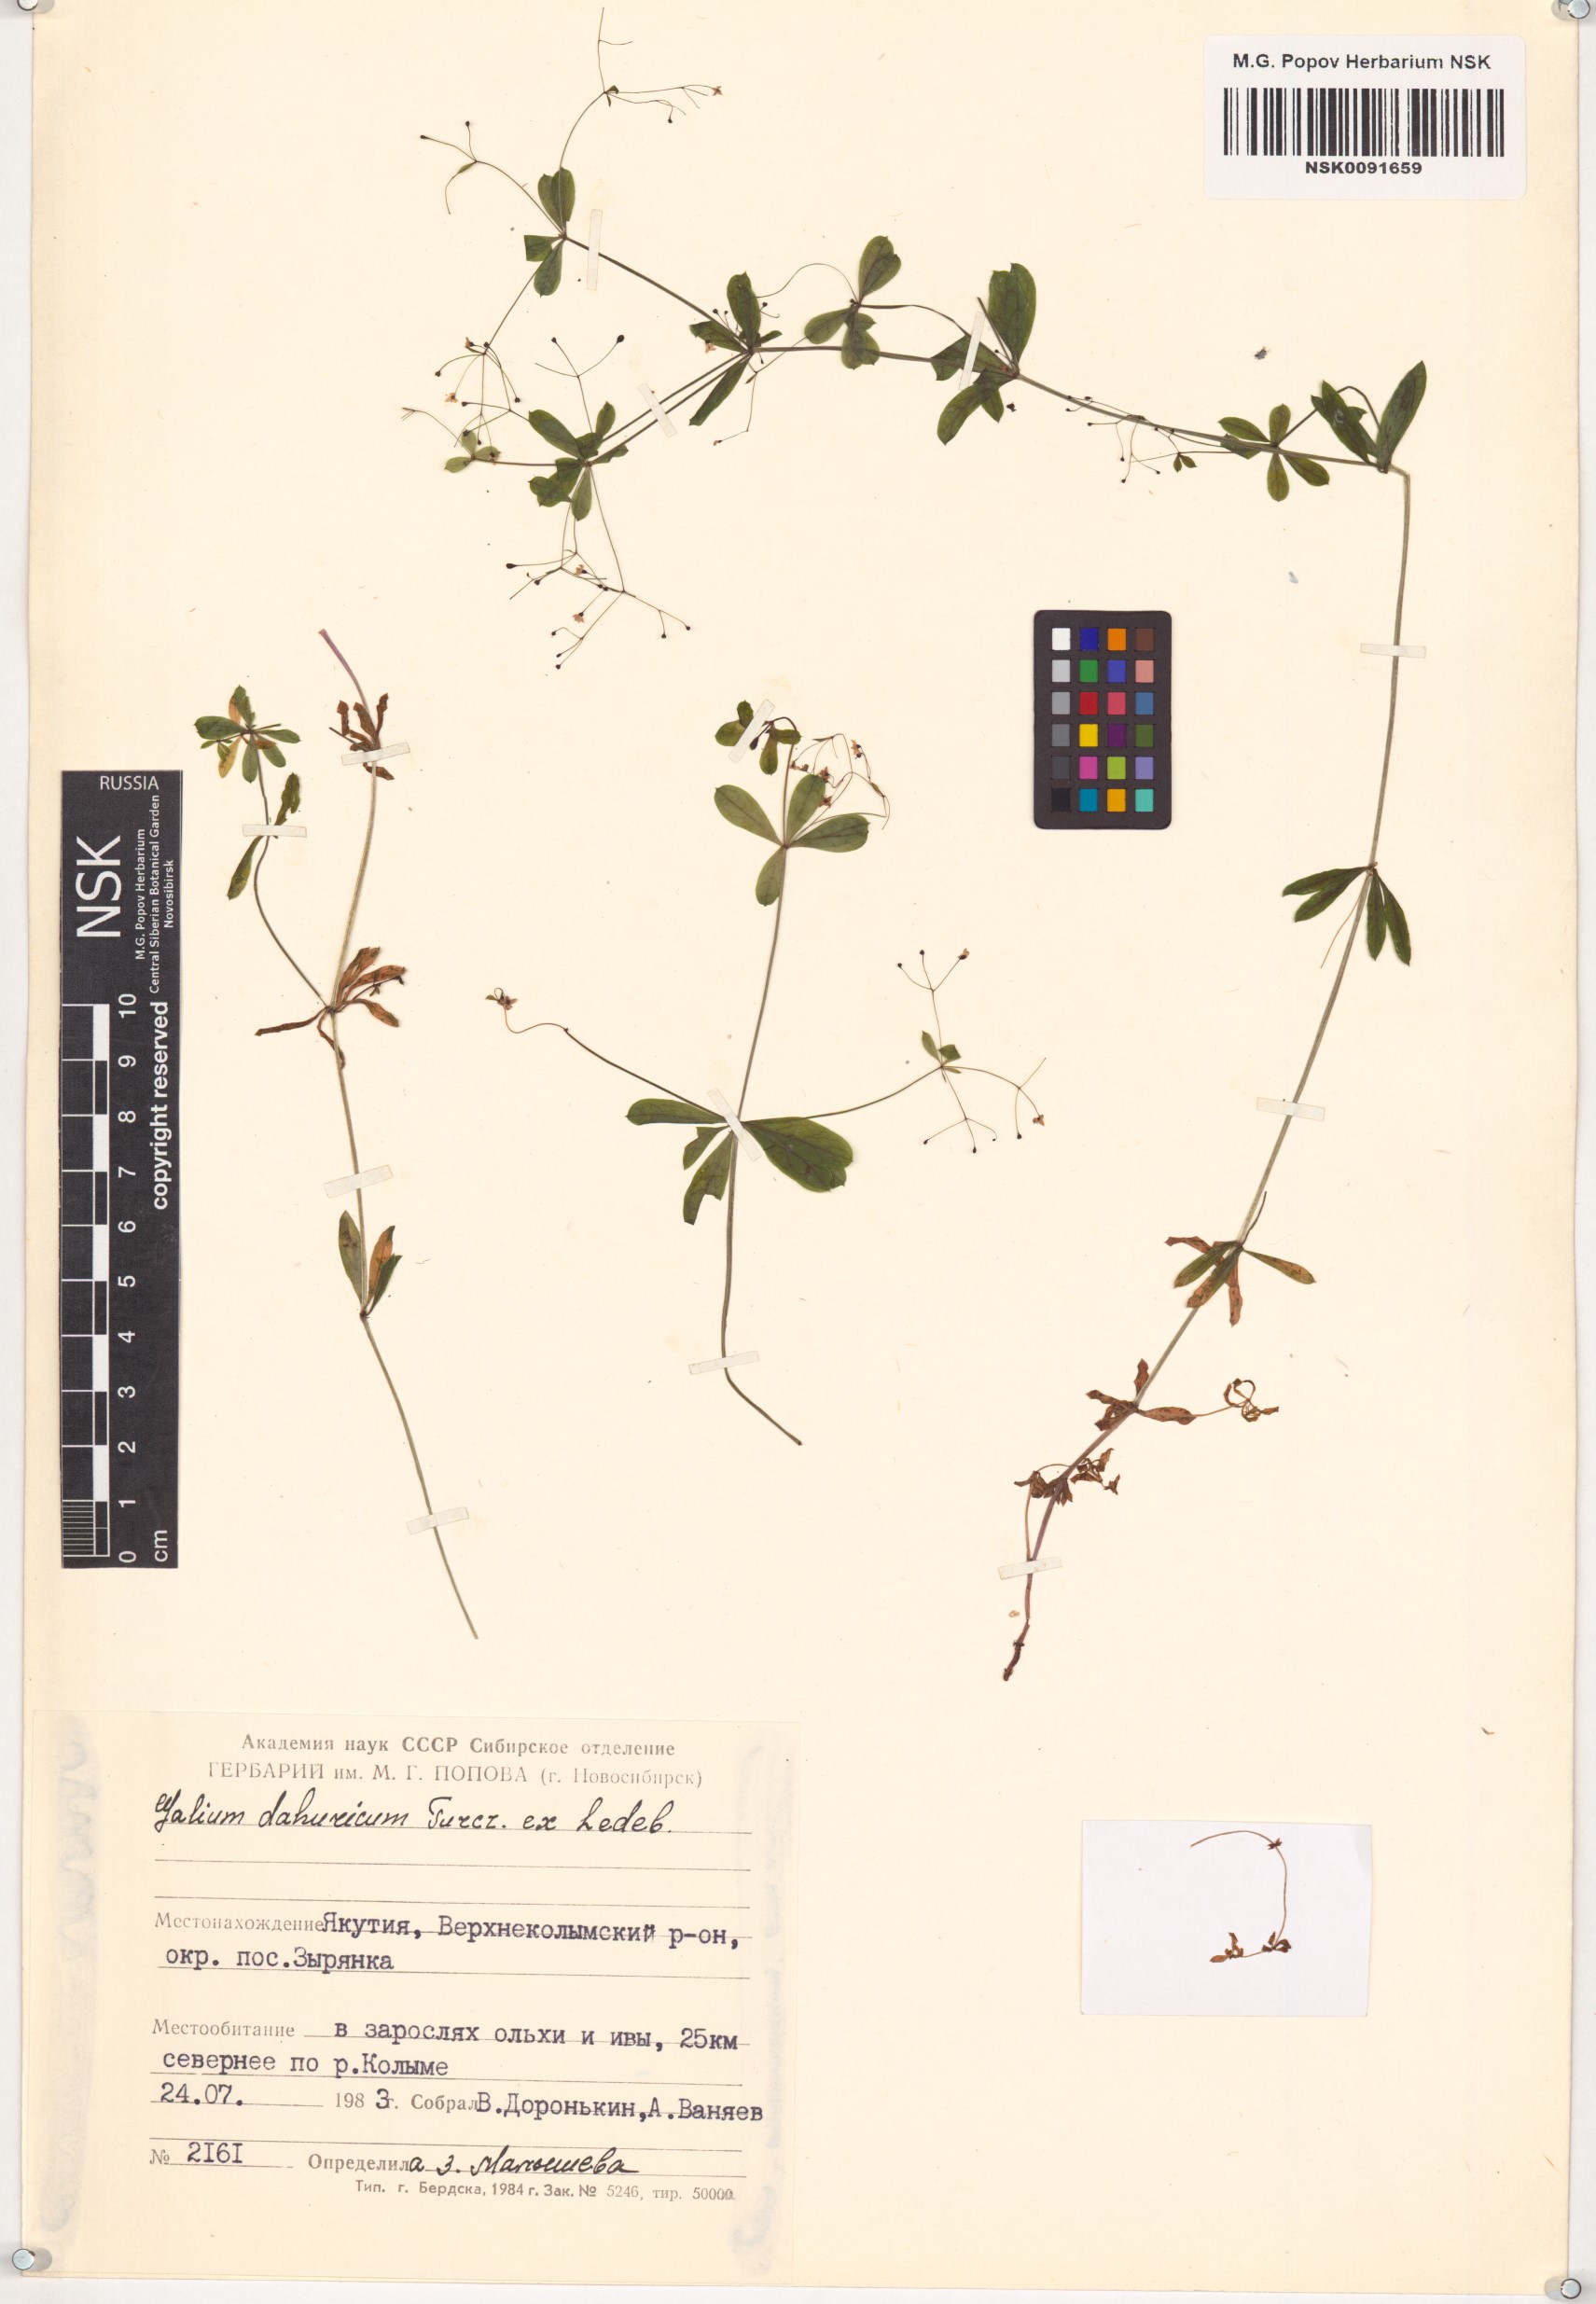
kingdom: Plantae
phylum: Tracheophyta
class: Magnoliopsida
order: Gentianales
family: Rubiaceae
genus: Galium
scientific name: Galium dahuricum
